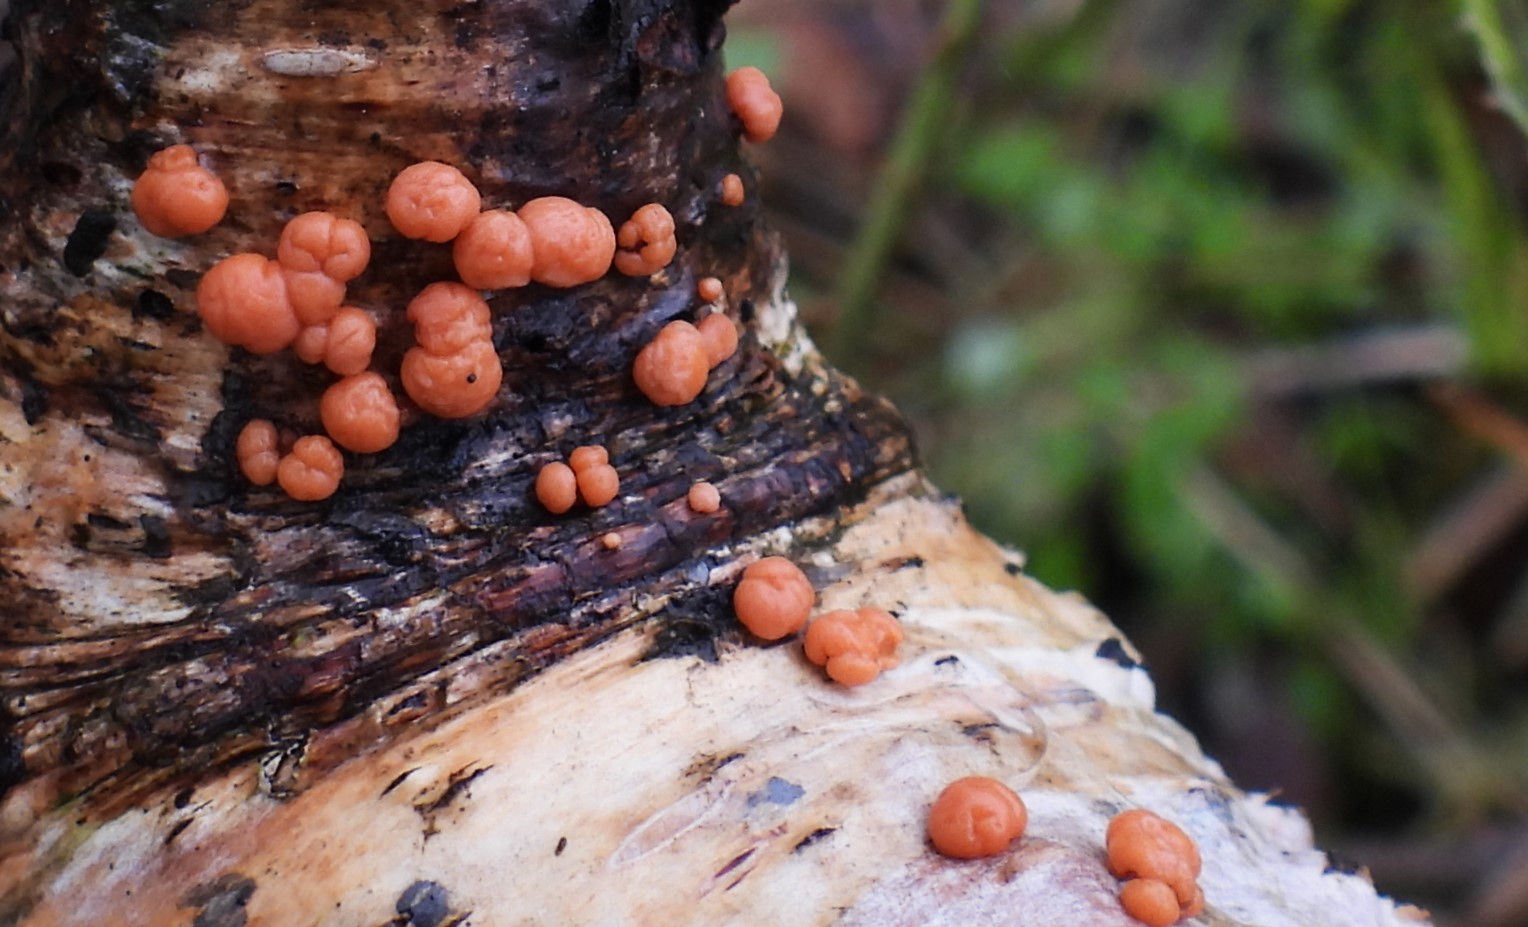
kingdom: Fungi
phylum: Ascomycota
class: Sordariomycetes
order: Hypocreales
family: Nectriaceae
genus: Nectria
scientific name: Nectria
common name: cinnobersvamp
